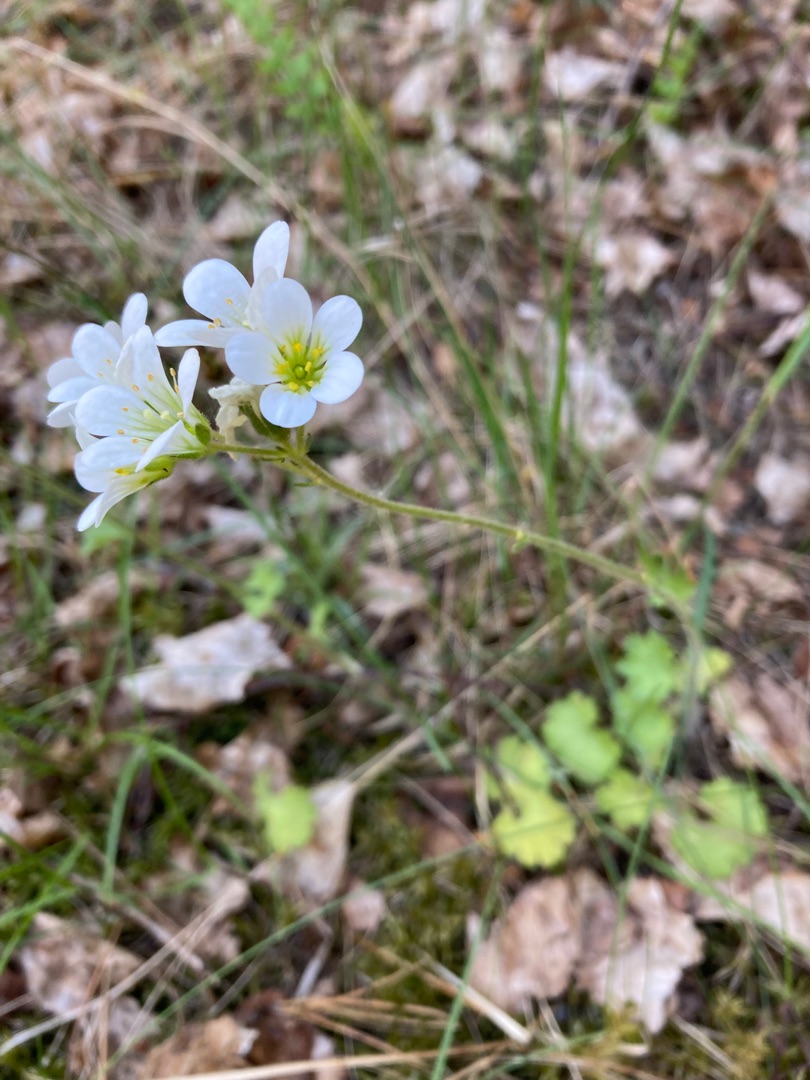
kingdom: Plantae
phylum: Tracheophyta
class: Magnoliopsida
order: Saxifragales
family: Saxifragaceae
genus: Saxifraga
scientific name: Saxifraga granulata
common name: Kornet stenbræk
